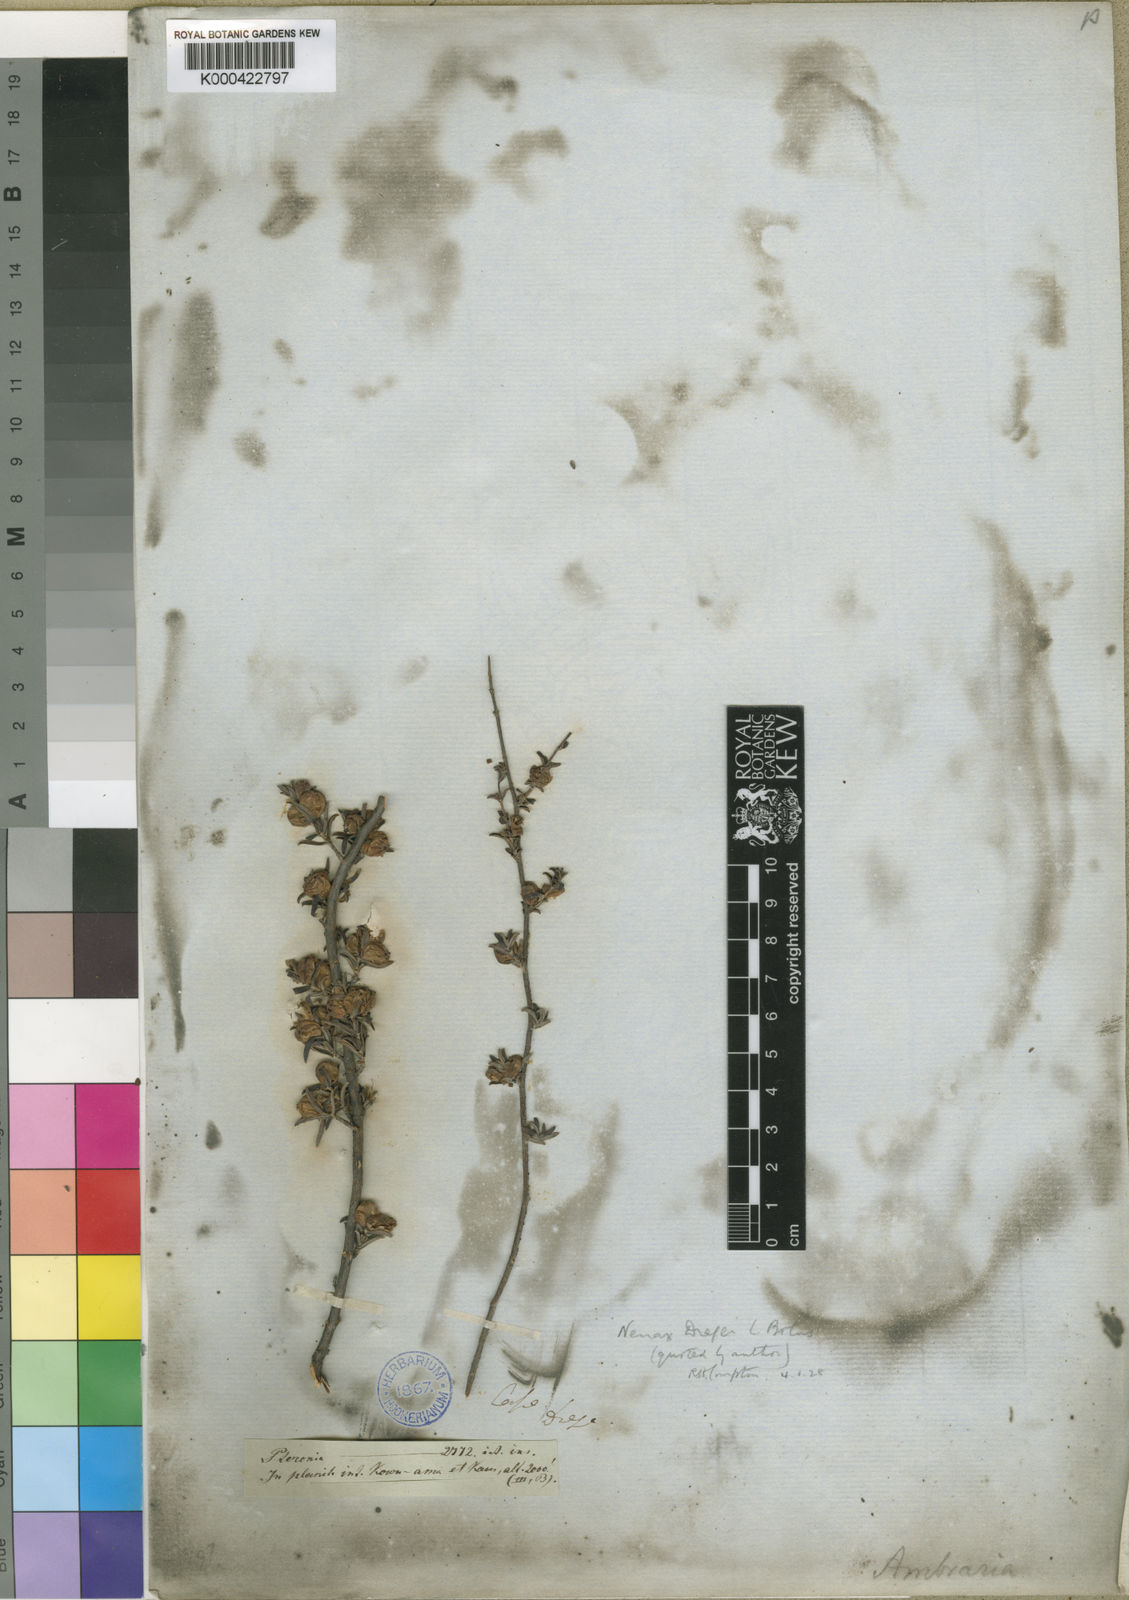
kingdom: Plantae
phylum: Tracheophyta
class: Magnoliopsida
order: Gentianales
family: Rubiaceae
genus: Nenax
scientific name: Nenax cinerea
